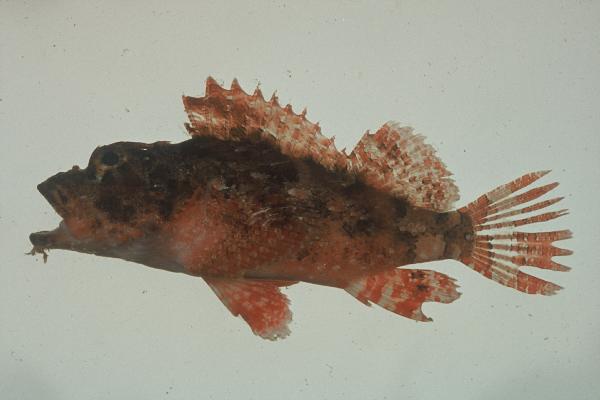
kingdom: Animalia
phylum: Chordata
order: Scorpaeniformes
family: Scorpaenidae
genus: Scorpaenopsis
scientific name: Scorpaenopsis possi
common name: Poss's scorpionfish
